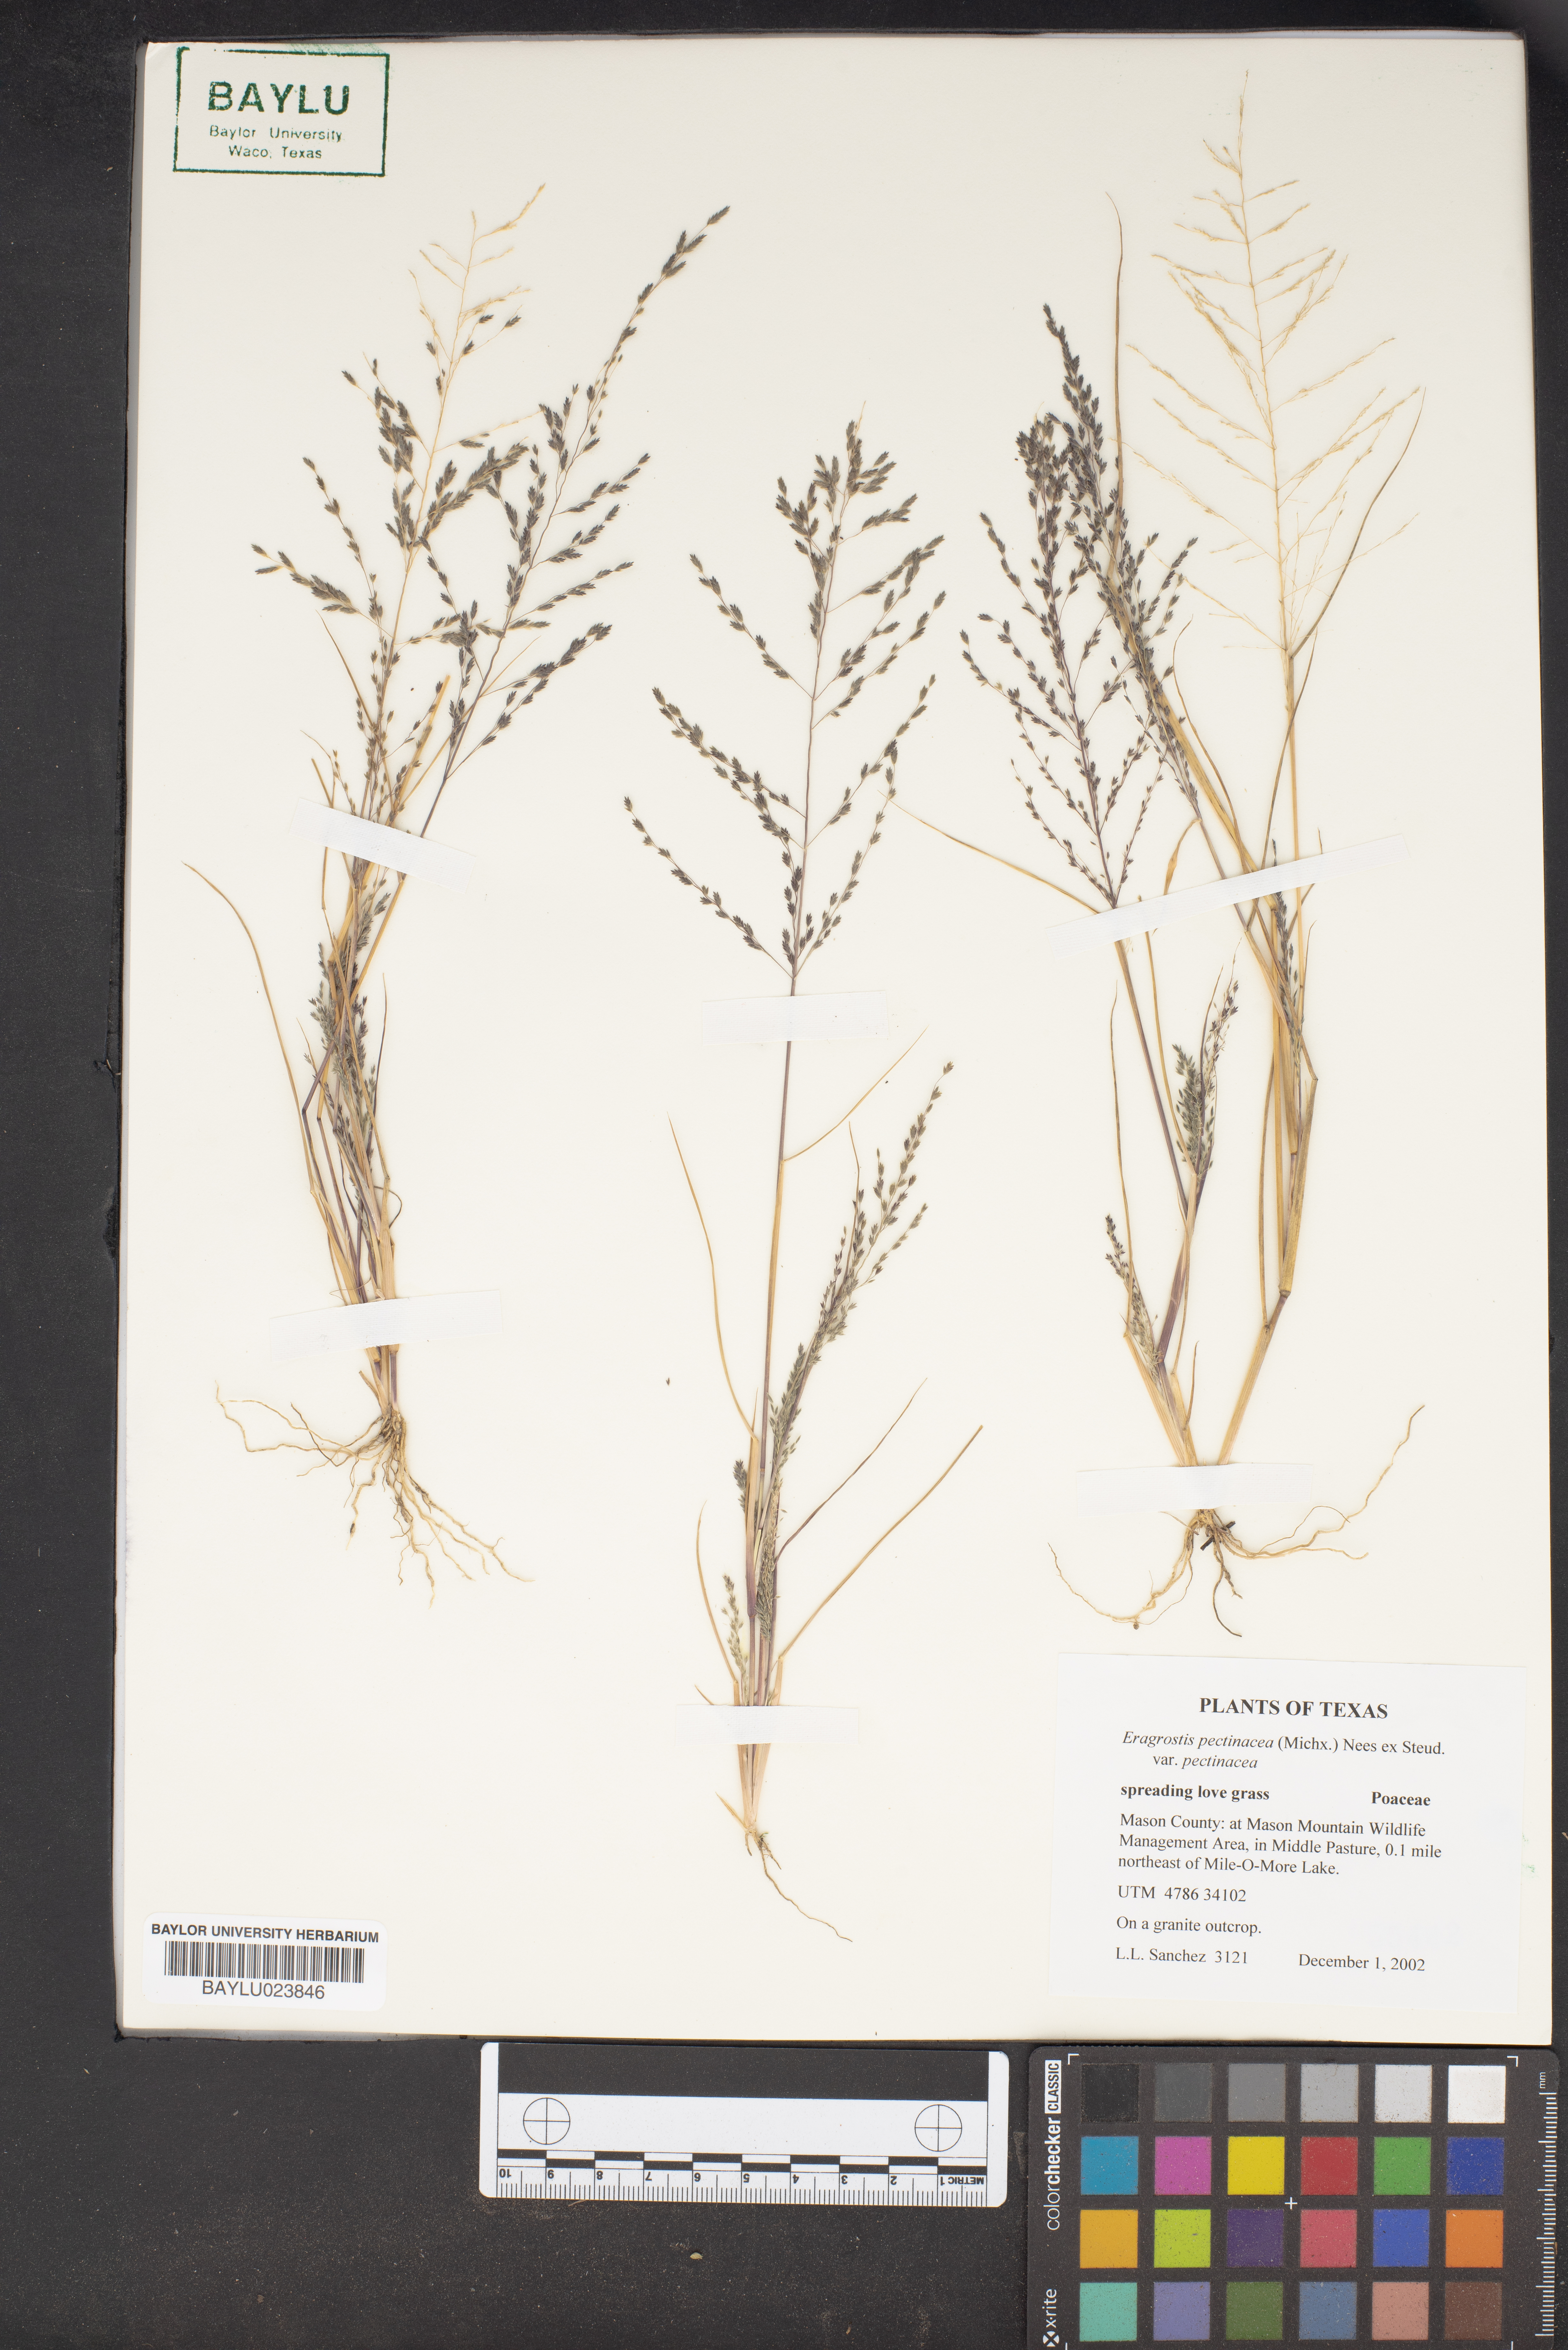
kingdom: Plantae
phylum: Tracheophyta
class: Liliopsida
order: Poales
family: Poaceae
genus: Eragrostis
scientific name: Eragrostis pectinacea
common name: Tufted lovegrass
